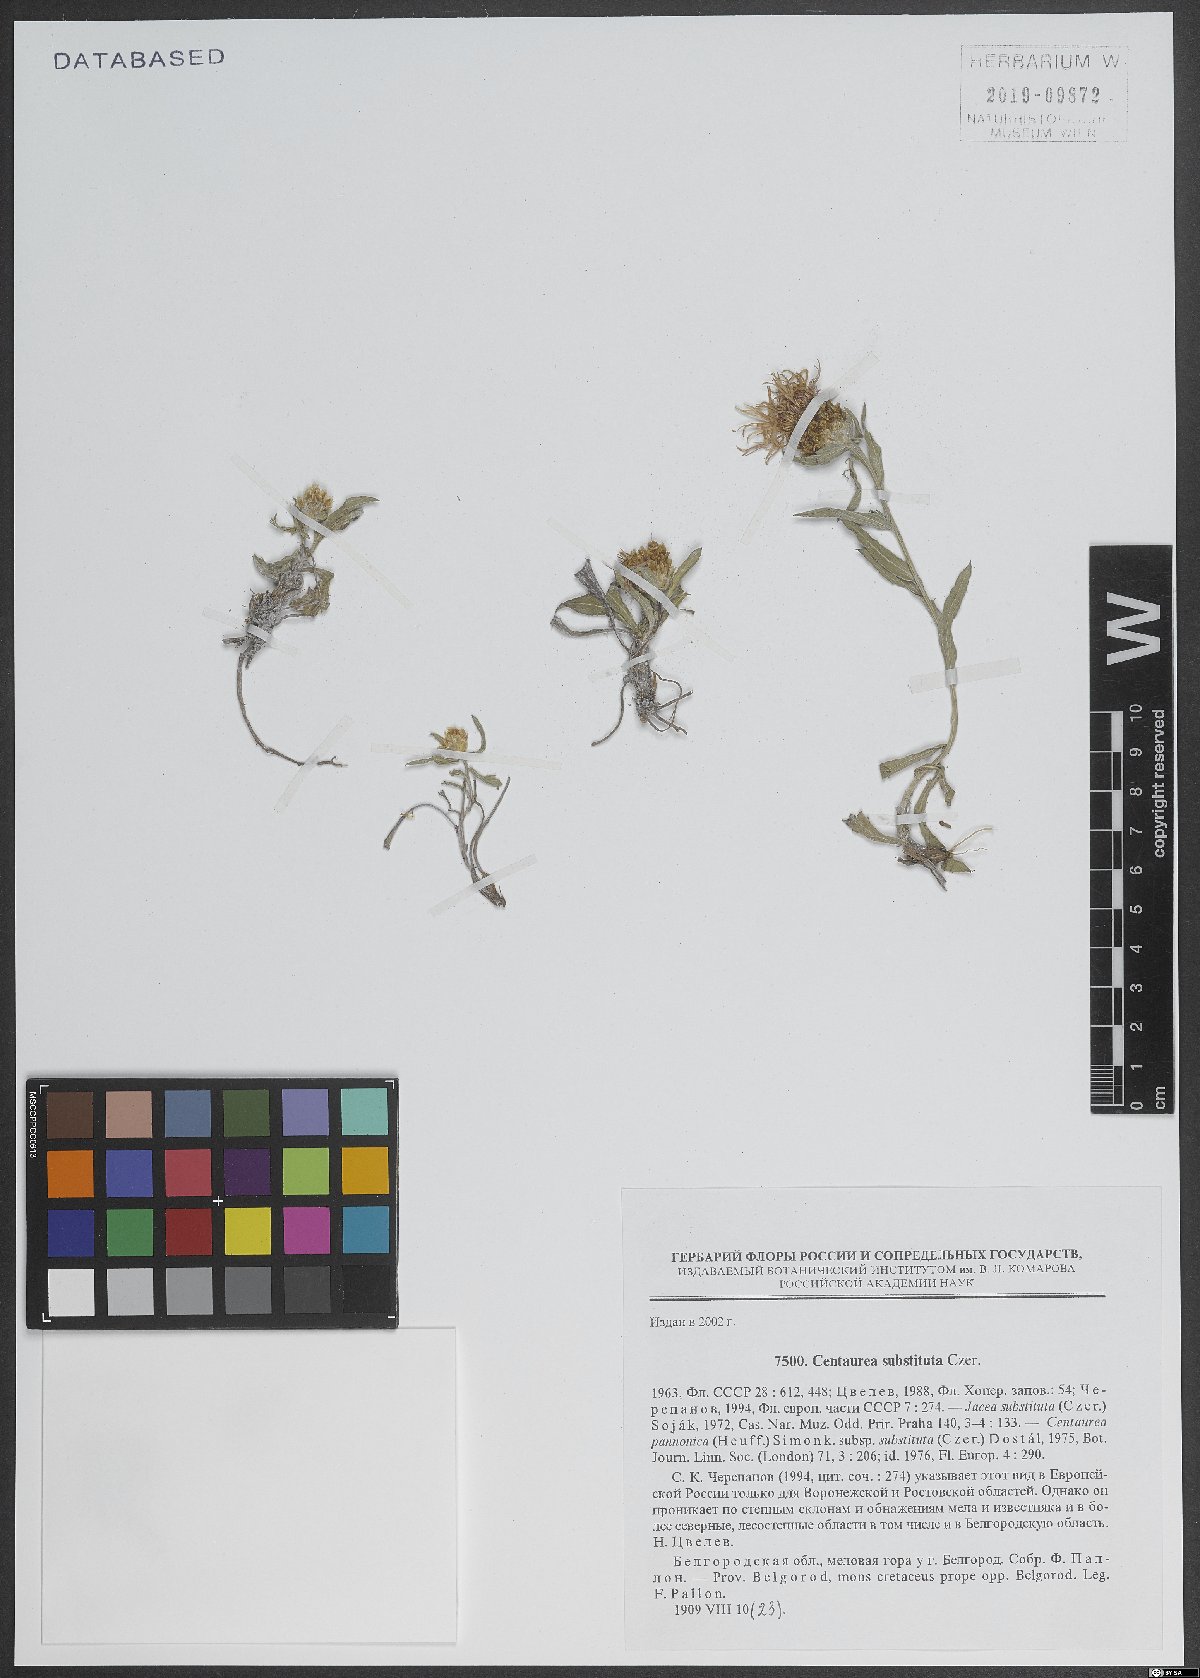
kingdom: Plantae
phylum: Tracheophyta
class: Magnoliopsida
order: Asterales
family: Asteraceae
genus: Centaurea
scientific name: Centaurea jacea
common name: Brown knapweed
